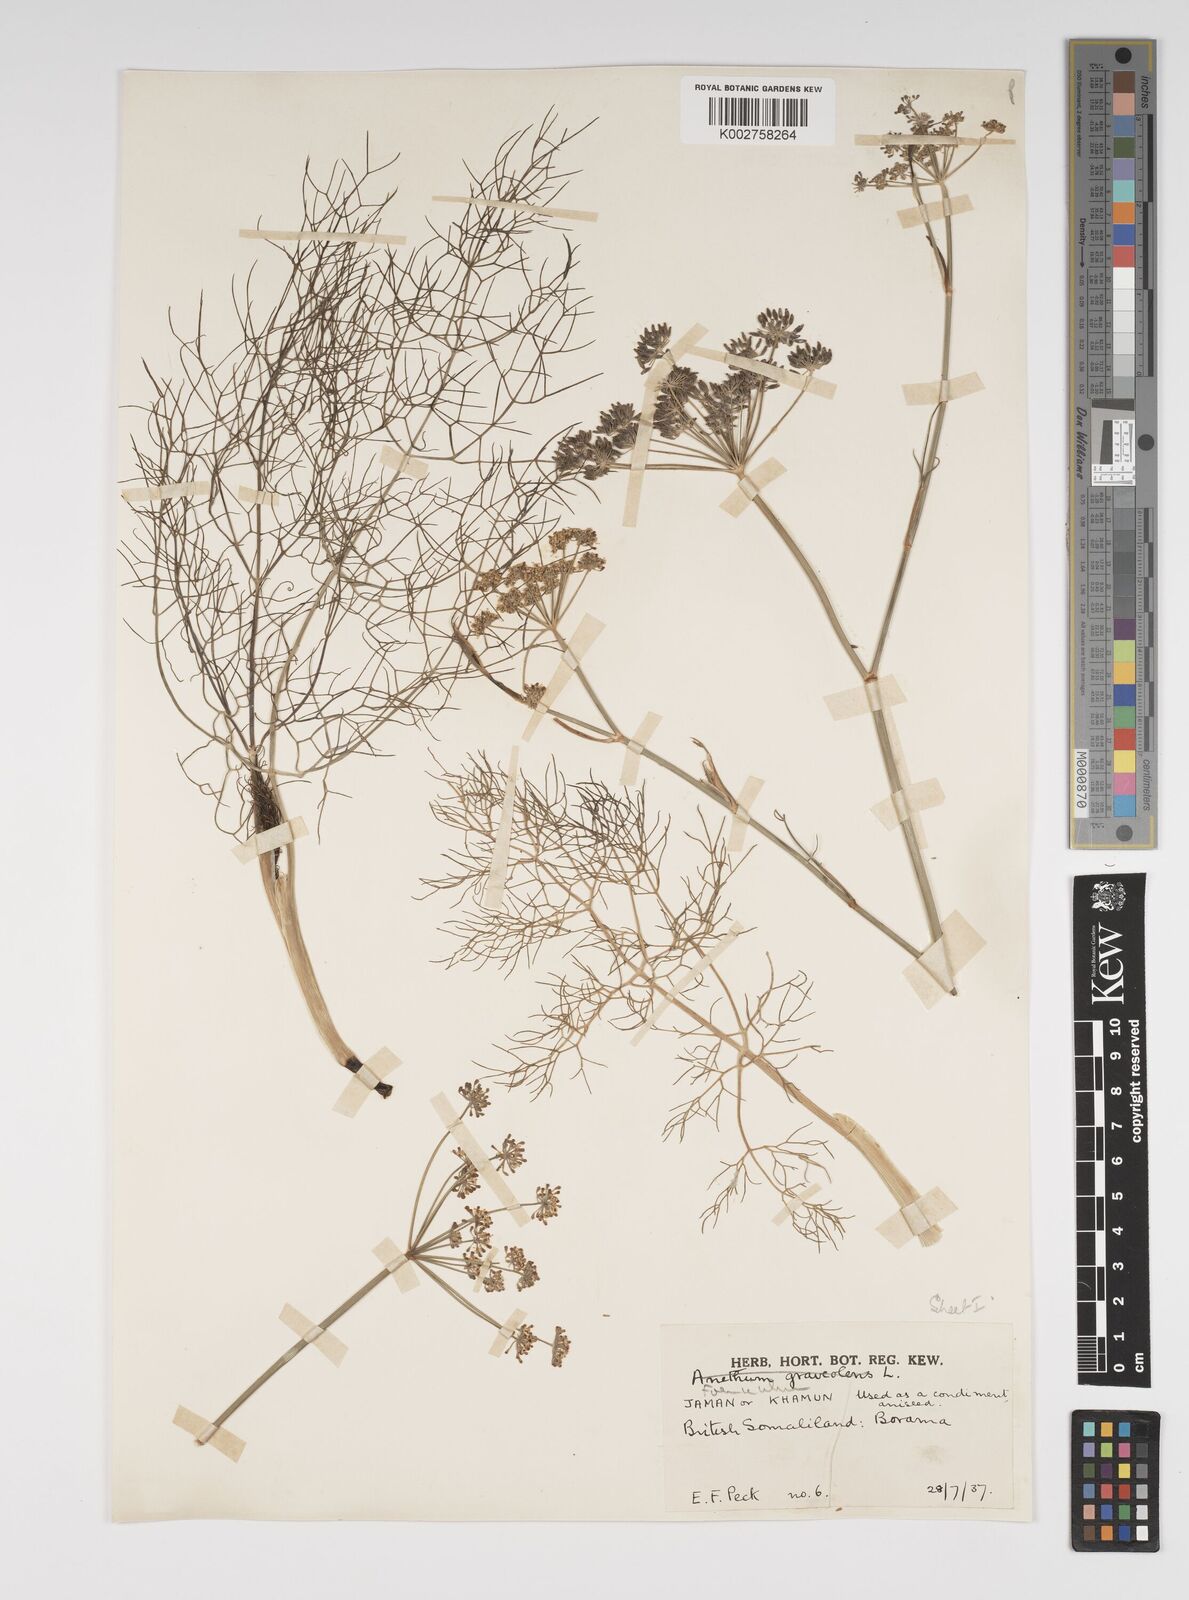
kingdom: Plantae
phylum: Tracheophyta
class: Magnoliopsida
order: Apiales
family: Apiaceae
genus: Foeniculum
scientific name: Foeniculum vulgare
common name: Fennel
